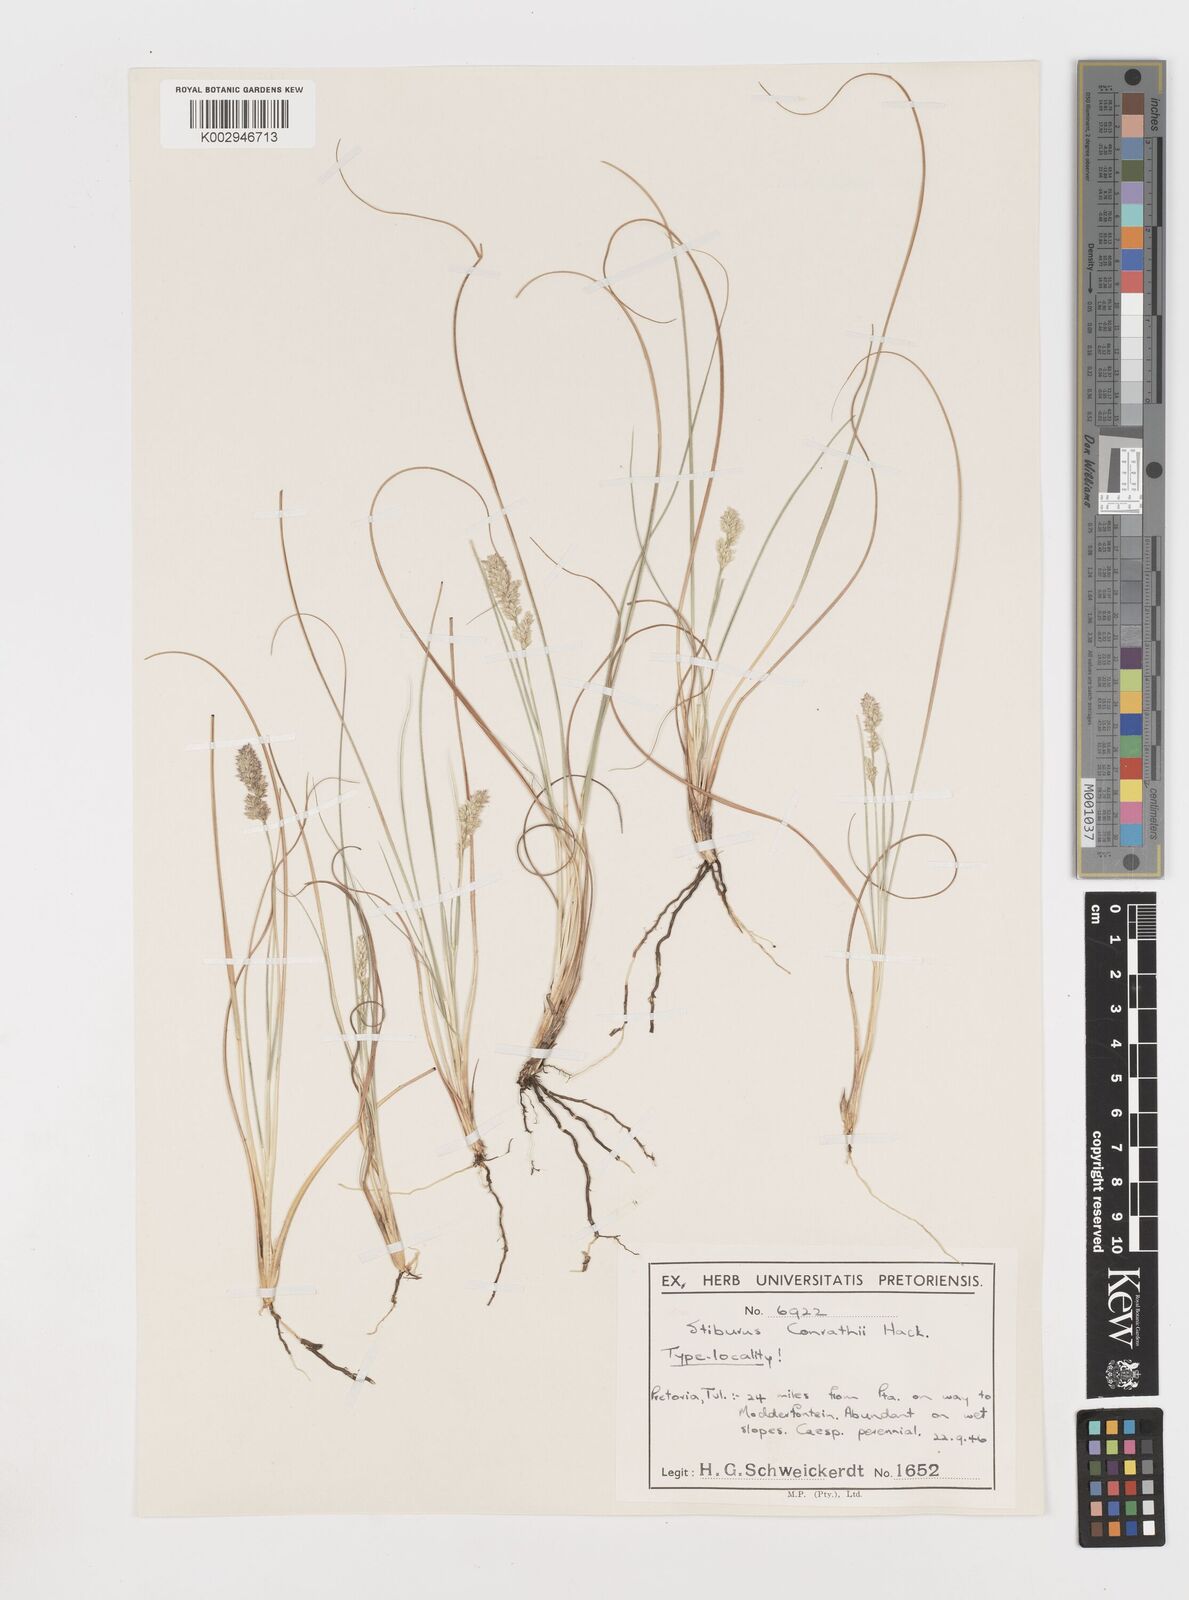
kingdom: Plantae
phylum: Tracheophyta
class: Liliopsida
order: Poales
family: Poaceae
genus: Stiburus
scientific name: Stiburus conrathii
